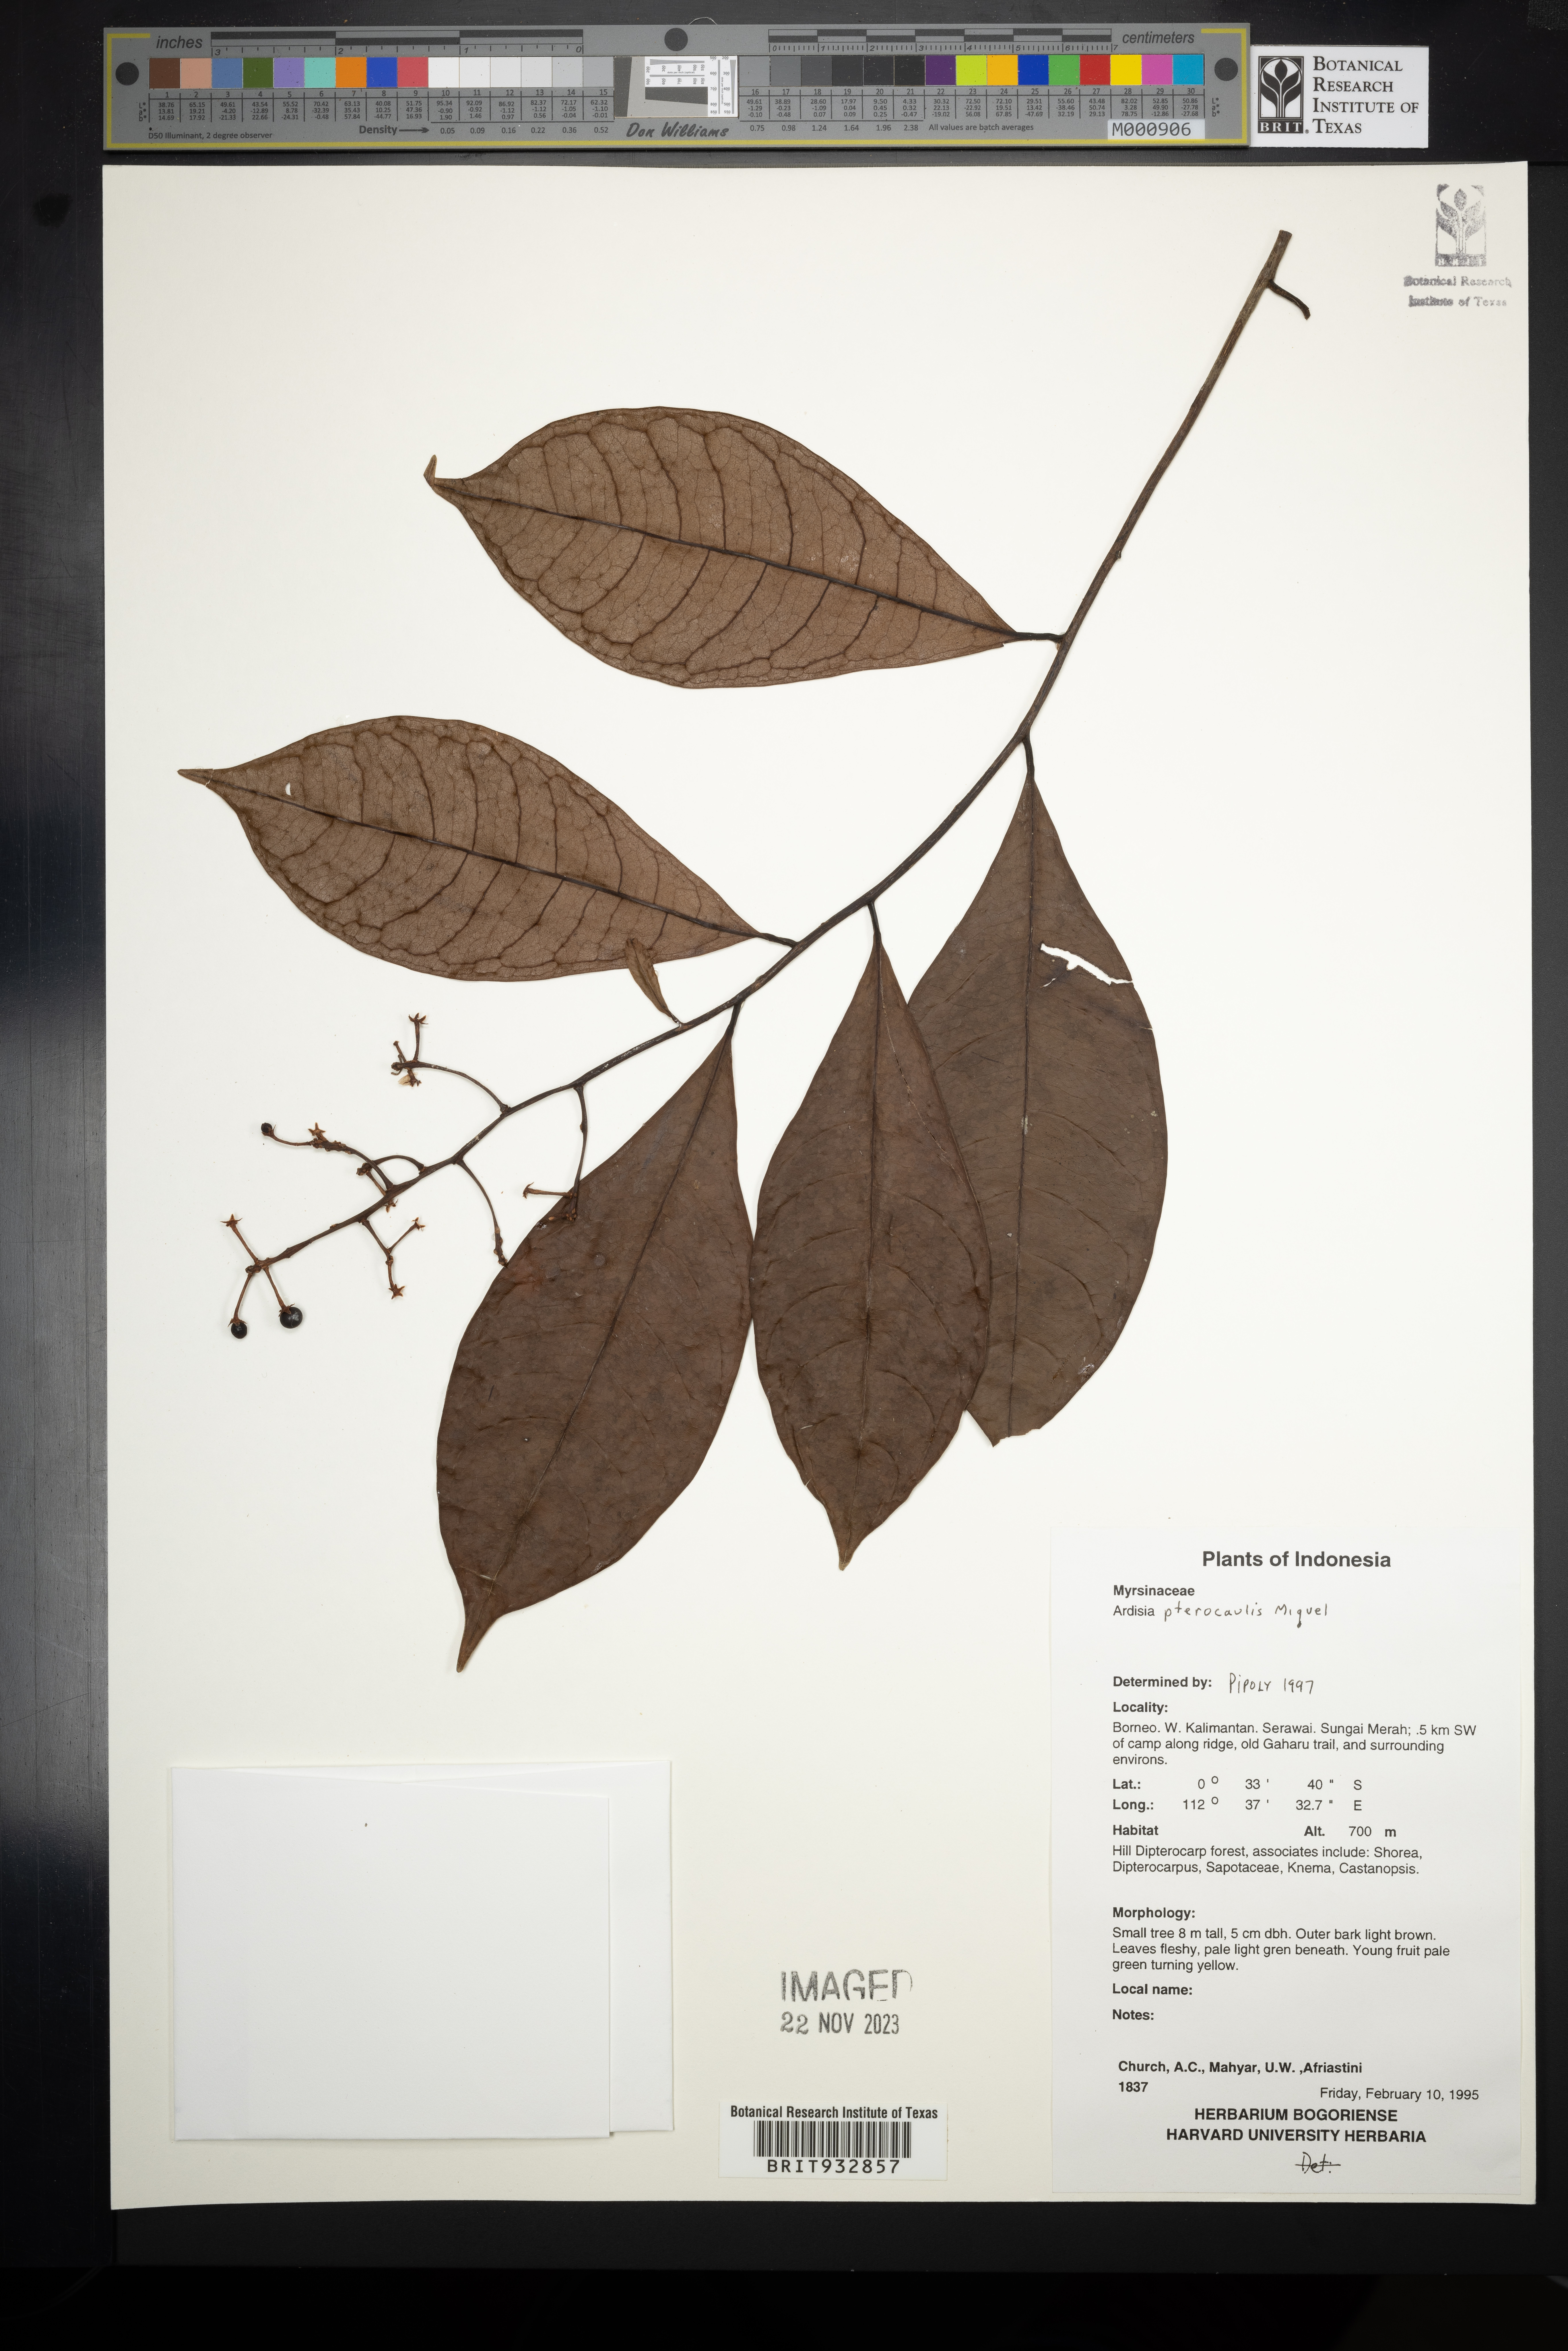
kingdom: Plantae
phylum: Tracheophyta
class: Magnoliopsida
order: Ericales
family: Primulaceae
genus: Ardisia
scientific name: Ardisia
